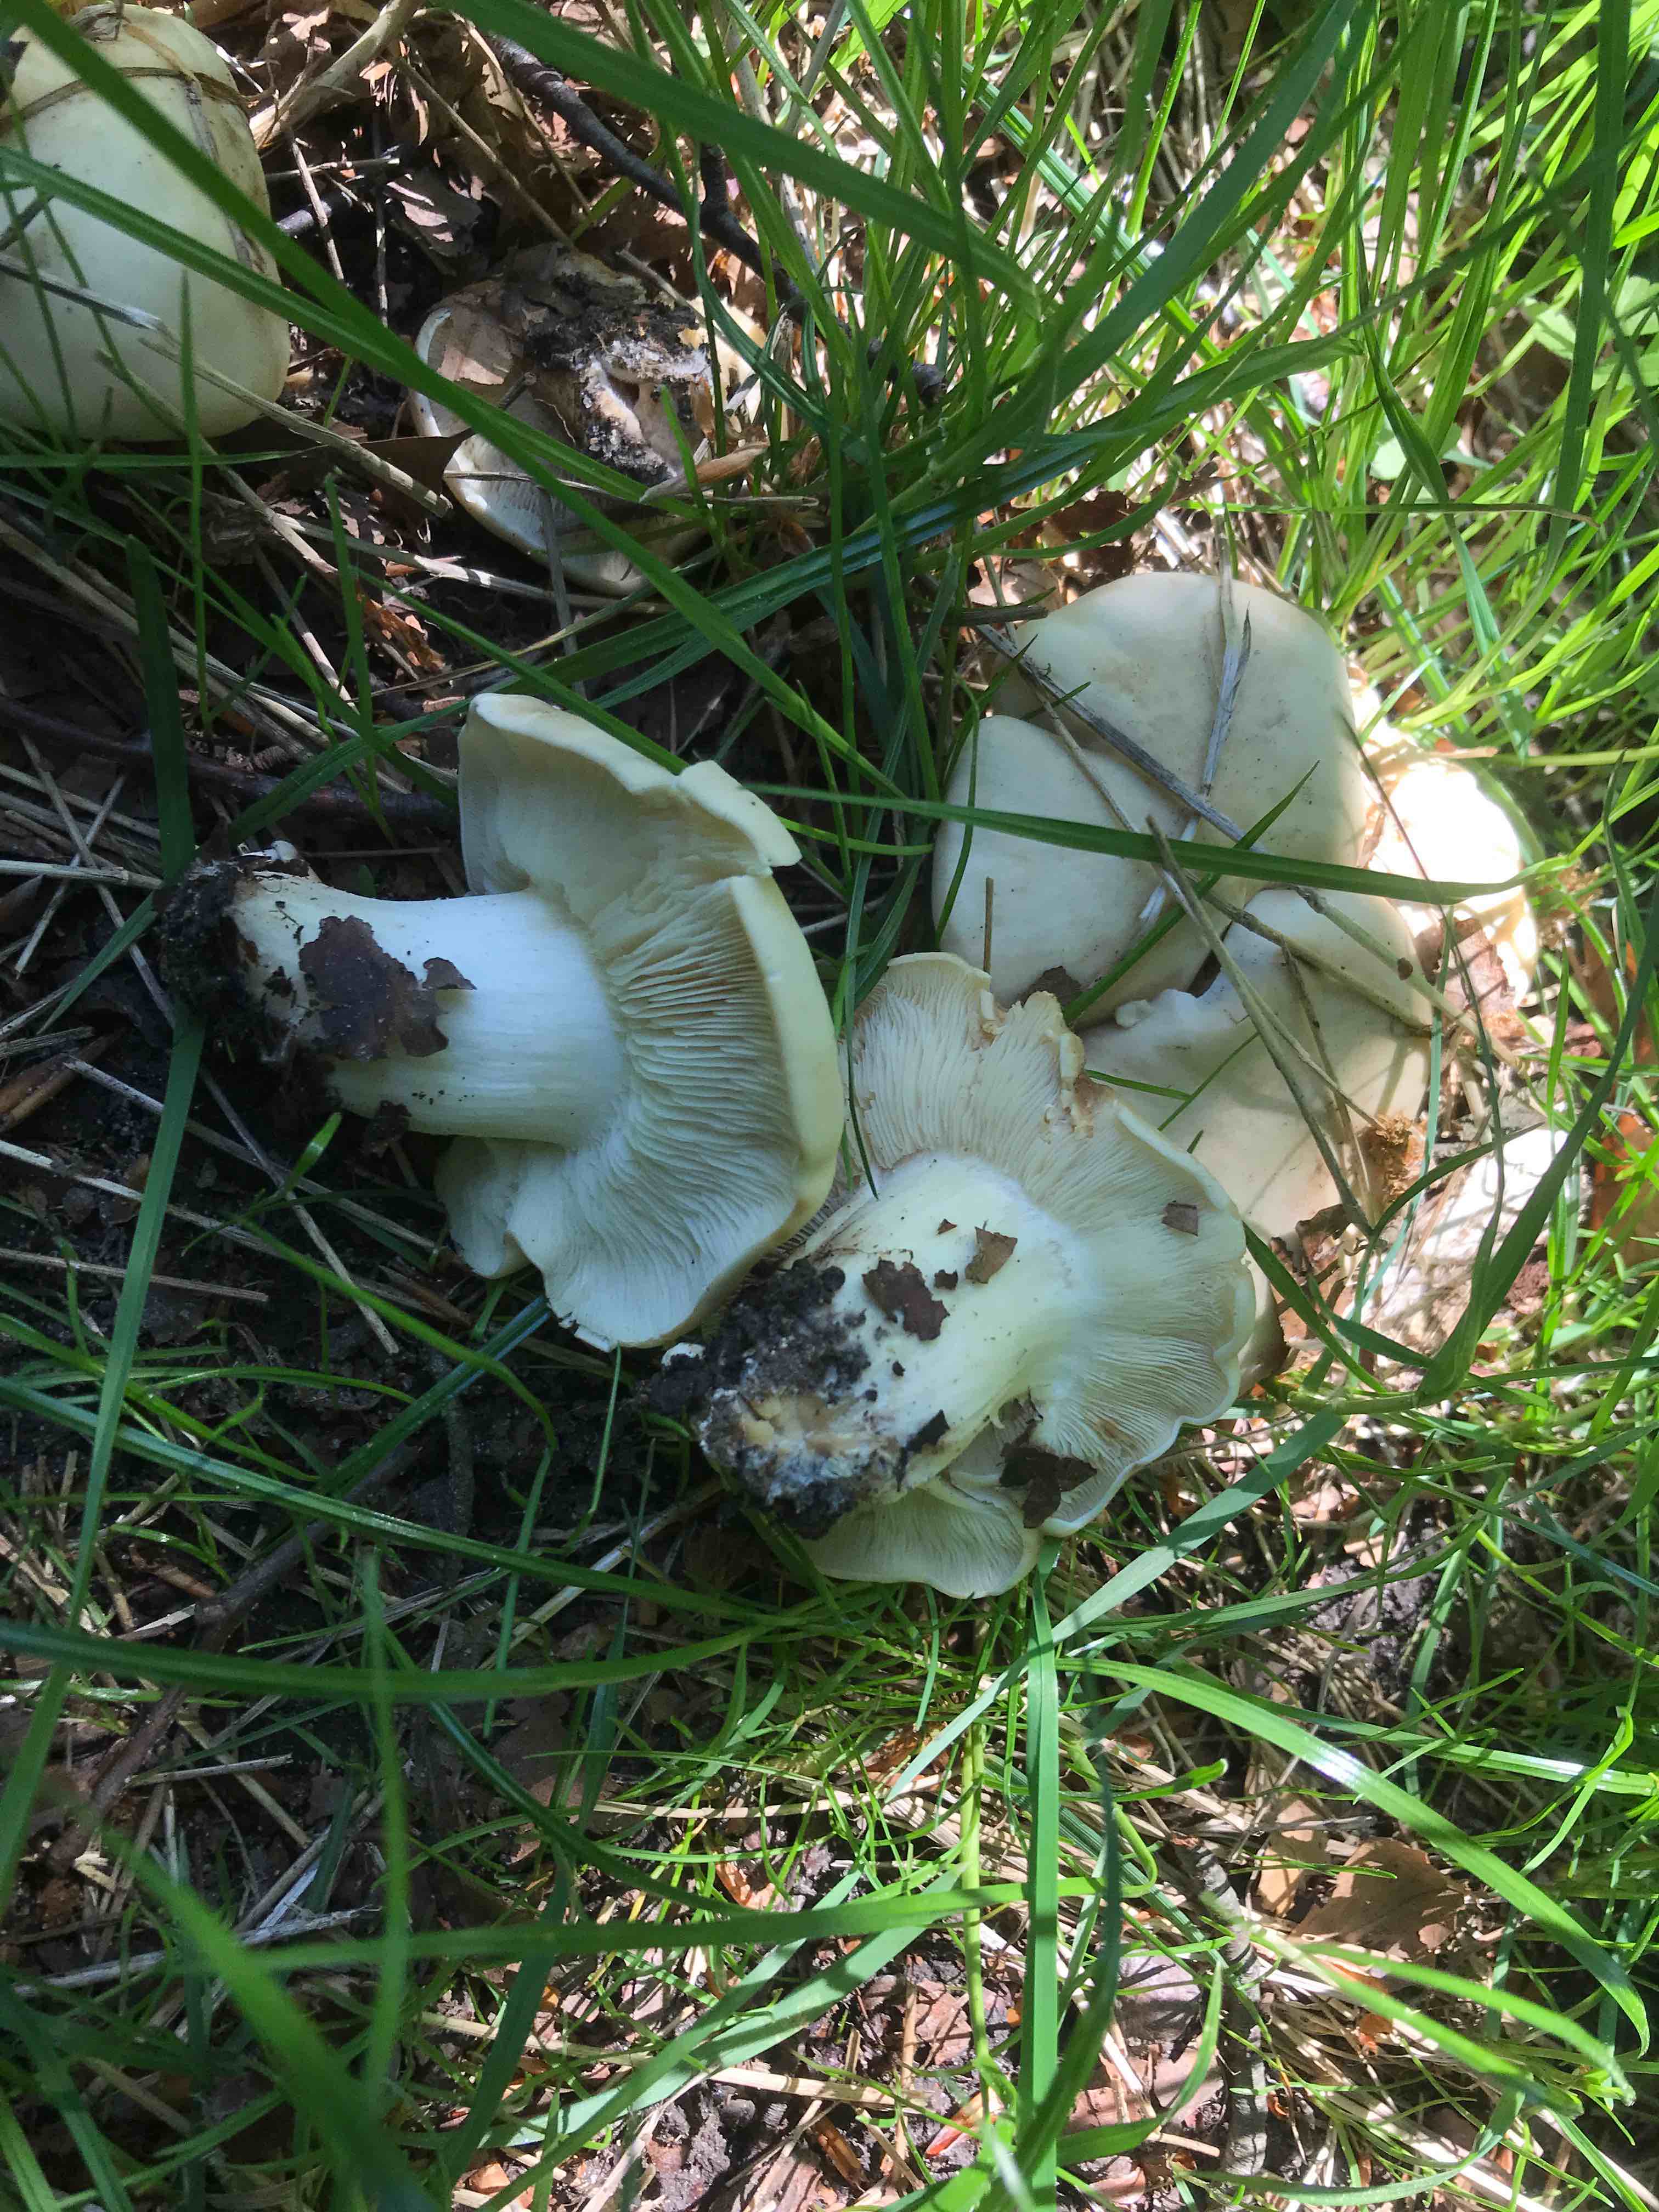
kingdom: Fungi
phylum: Basidiomycota
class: Agaricomycetes
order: Agaricales
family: Lyophyllaceae
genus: Calocybe
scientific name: Calocybe gambosa
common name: vårmusseron
